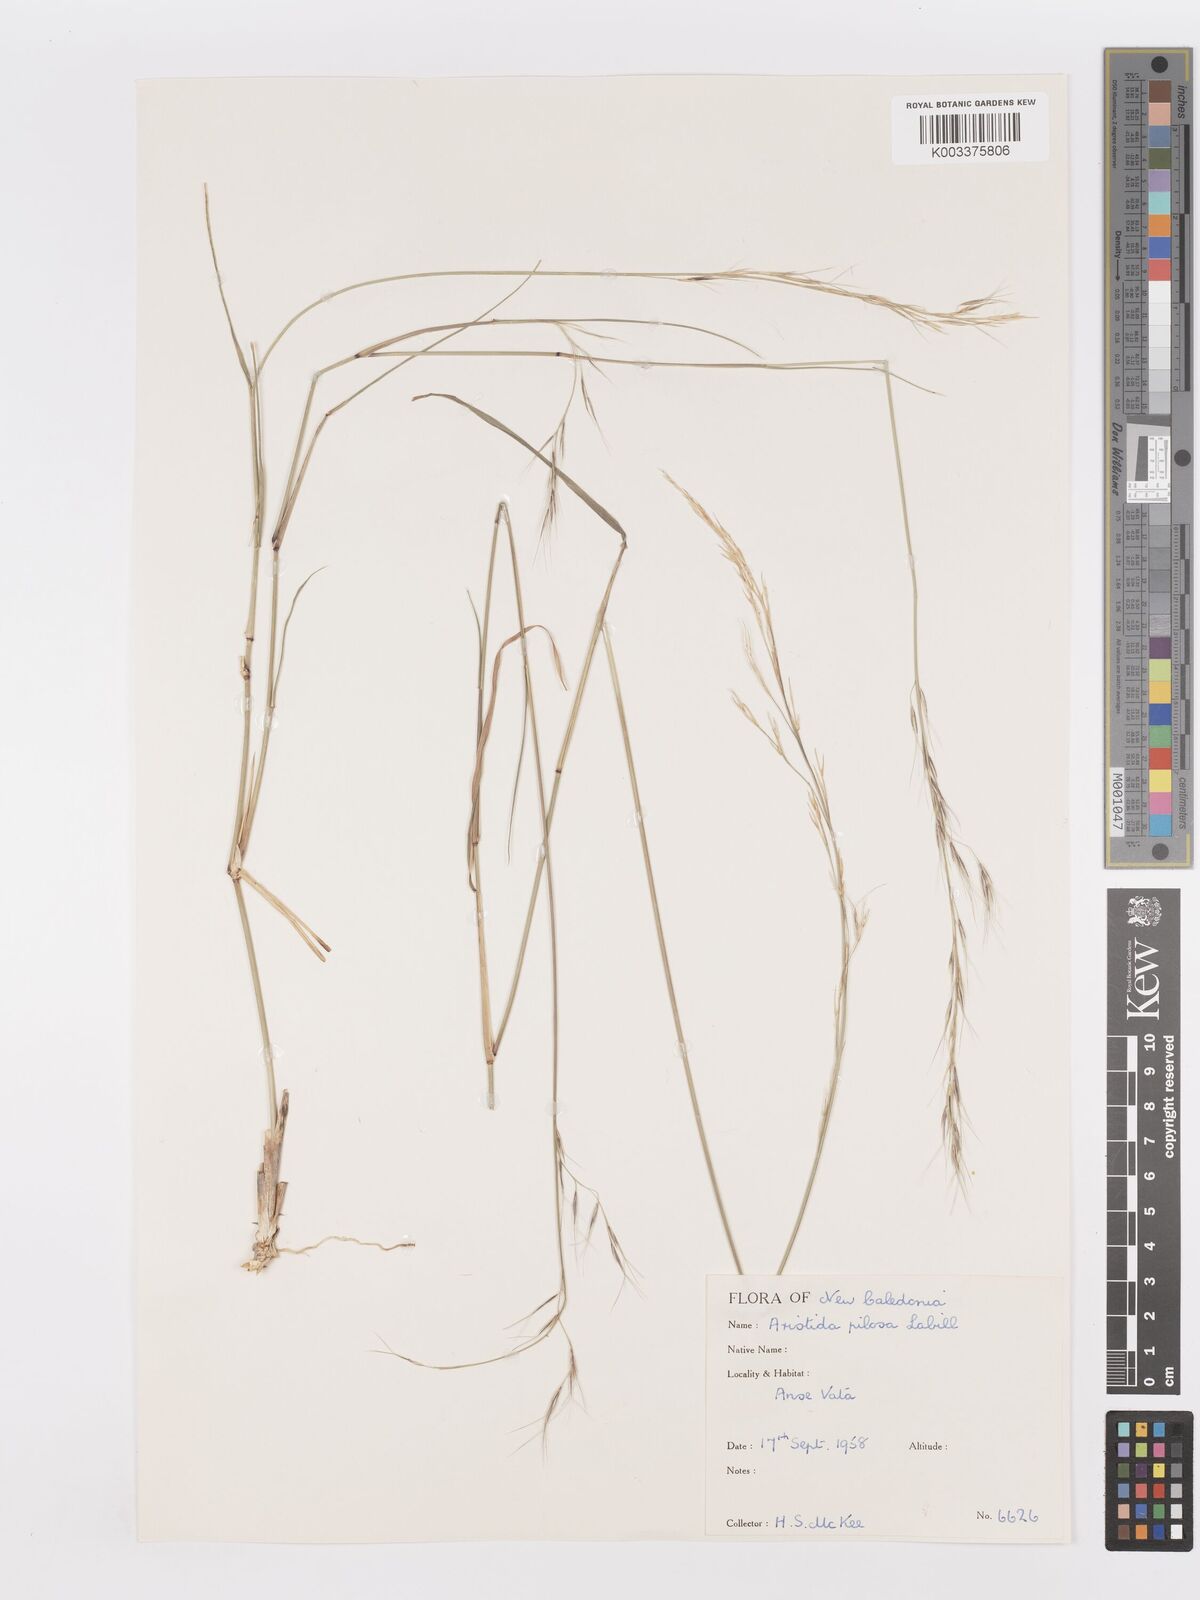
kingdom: Plantae
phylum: Tracheophyta
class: Liliopsida
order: Poales
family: Poaceae
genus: Aristida
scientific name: Aristida ramosa
